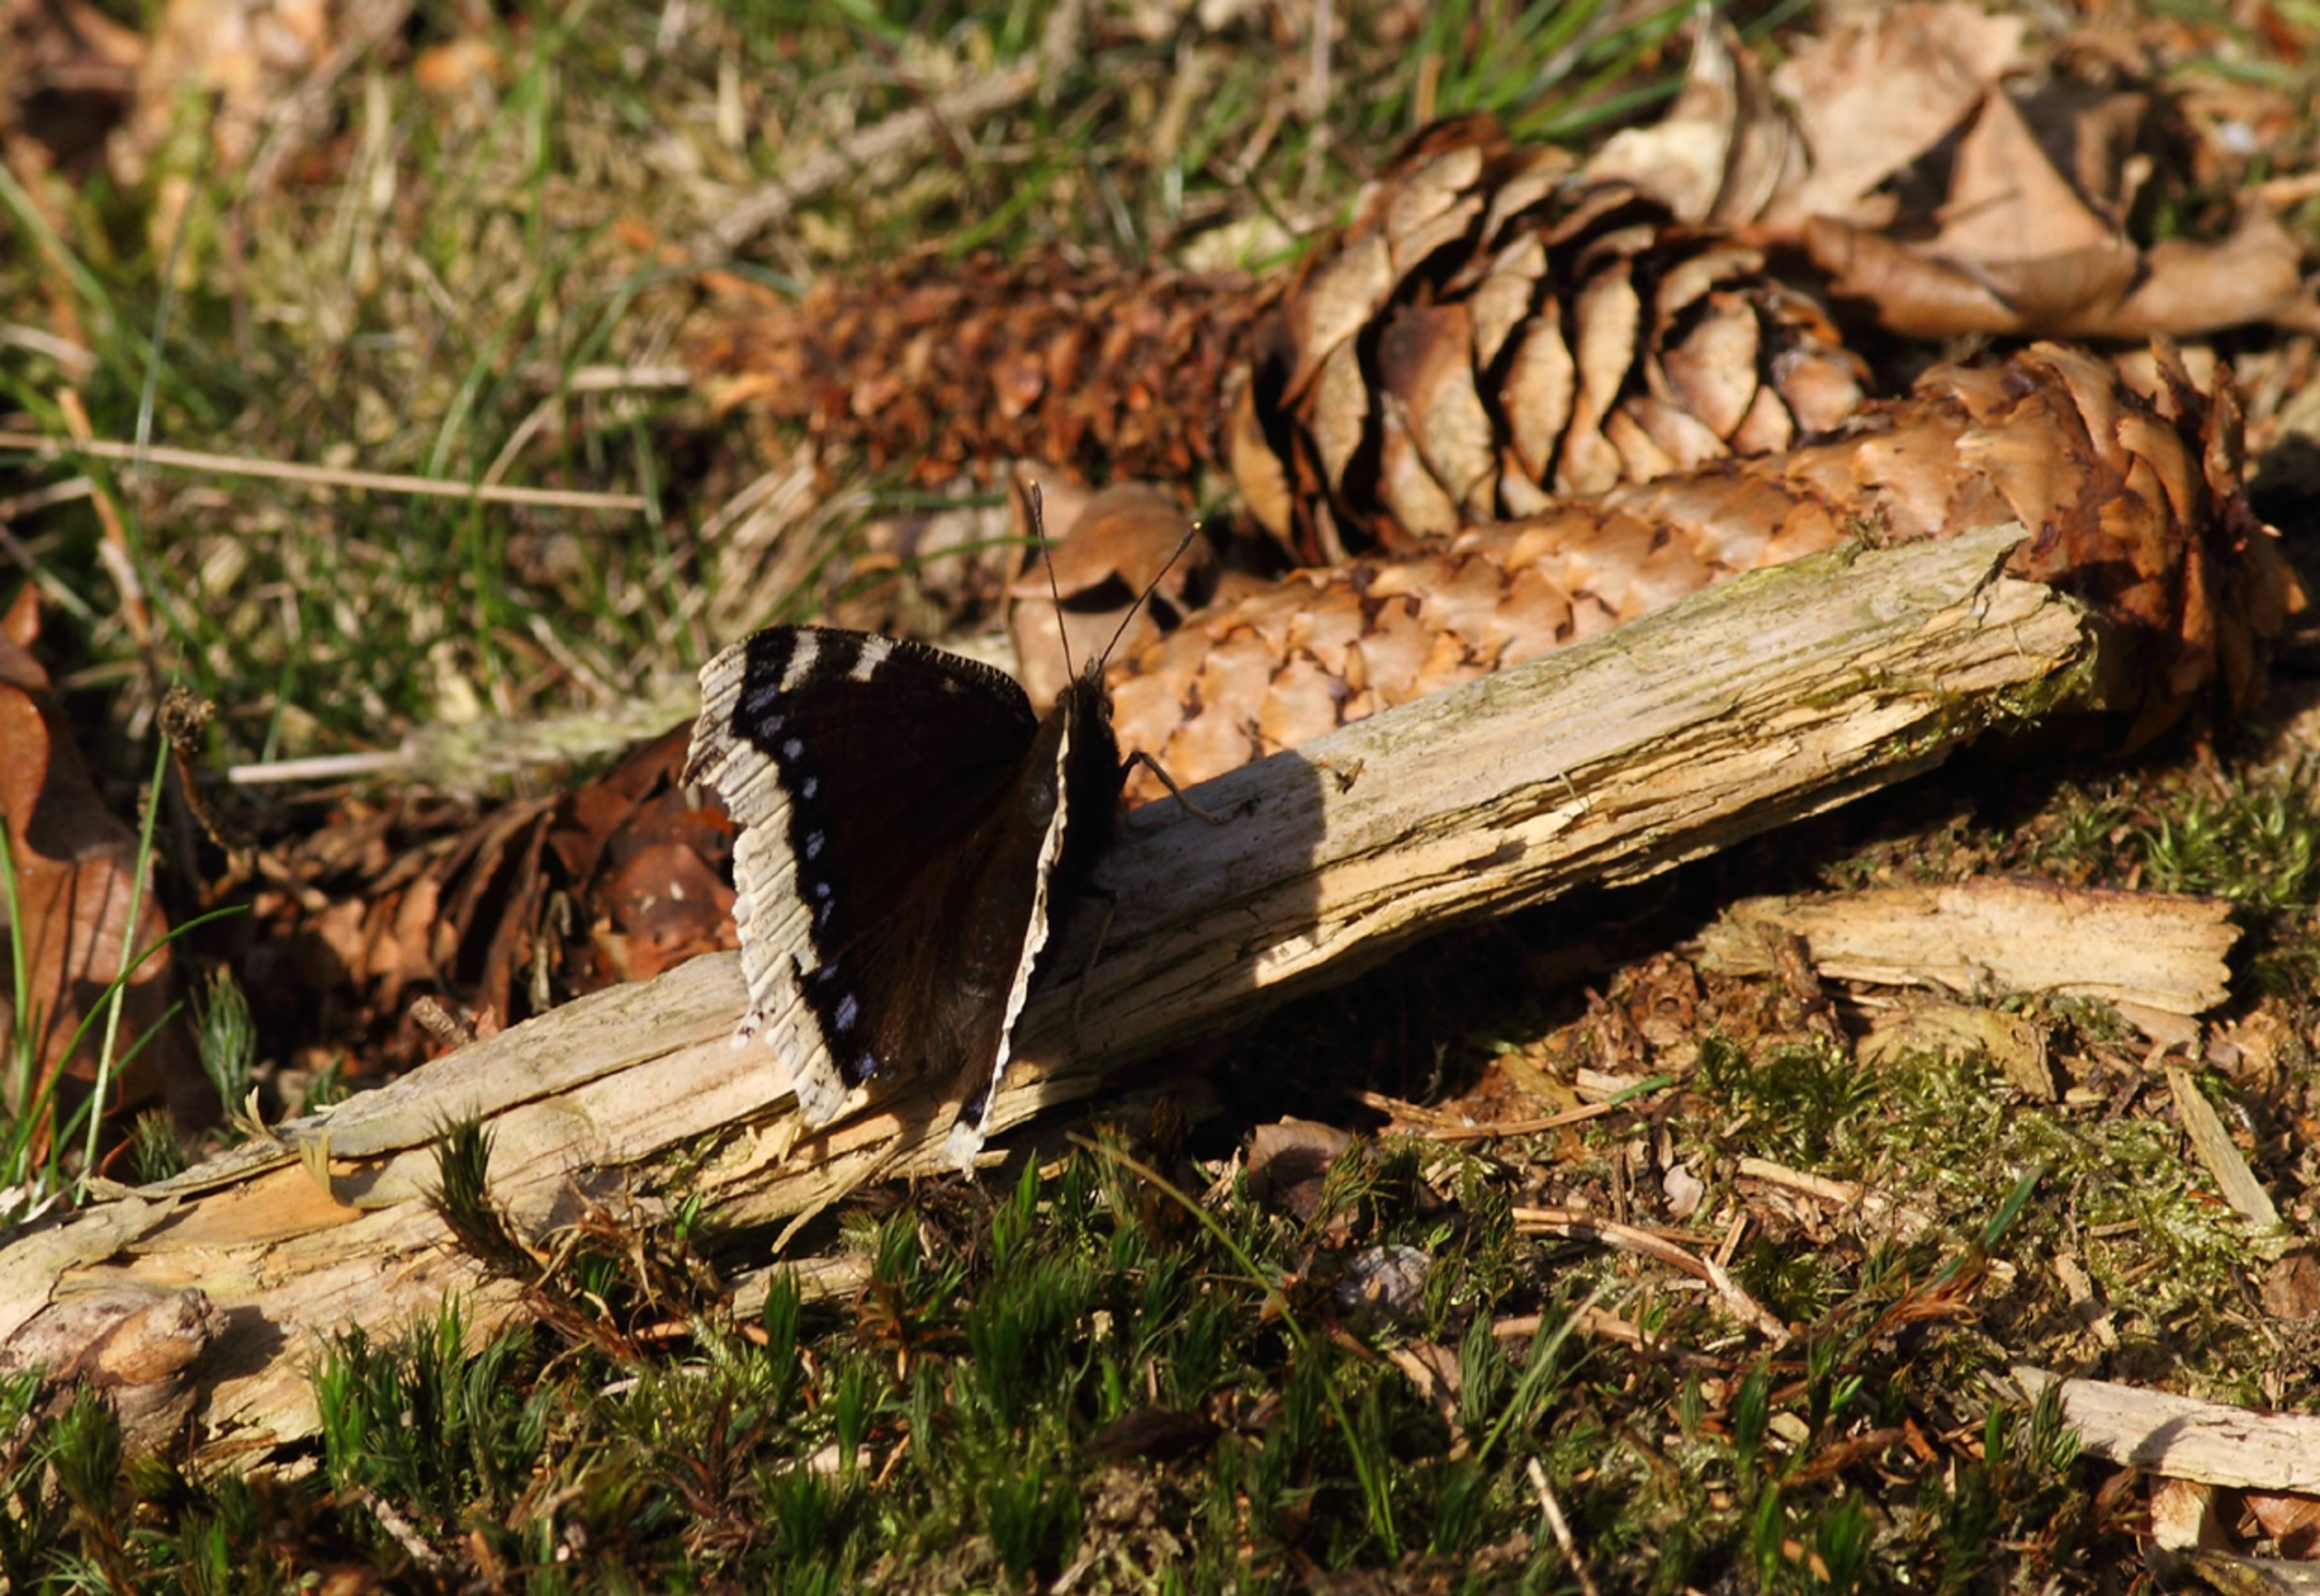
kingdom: Animalia
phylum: Arthropoda
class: Insecta
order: Lepidoptera
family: Nymphalidae
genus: Nymphalis
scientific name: Nymphalis antiopa
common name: Sørgekåbe
